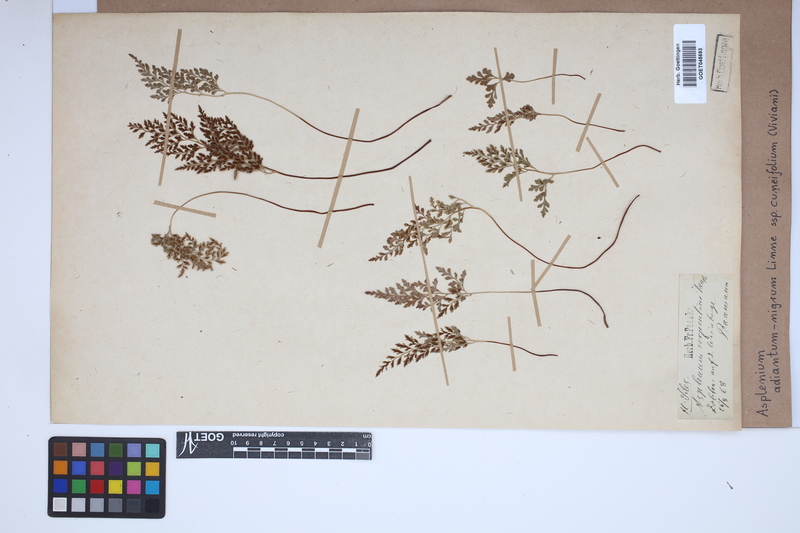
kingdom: Plantae
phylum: Tracheophyta
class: Polypodiopsida
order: Polypodiales
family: Aspleniaceae
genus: Asplenium
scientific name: Asplenium cuneifolium
